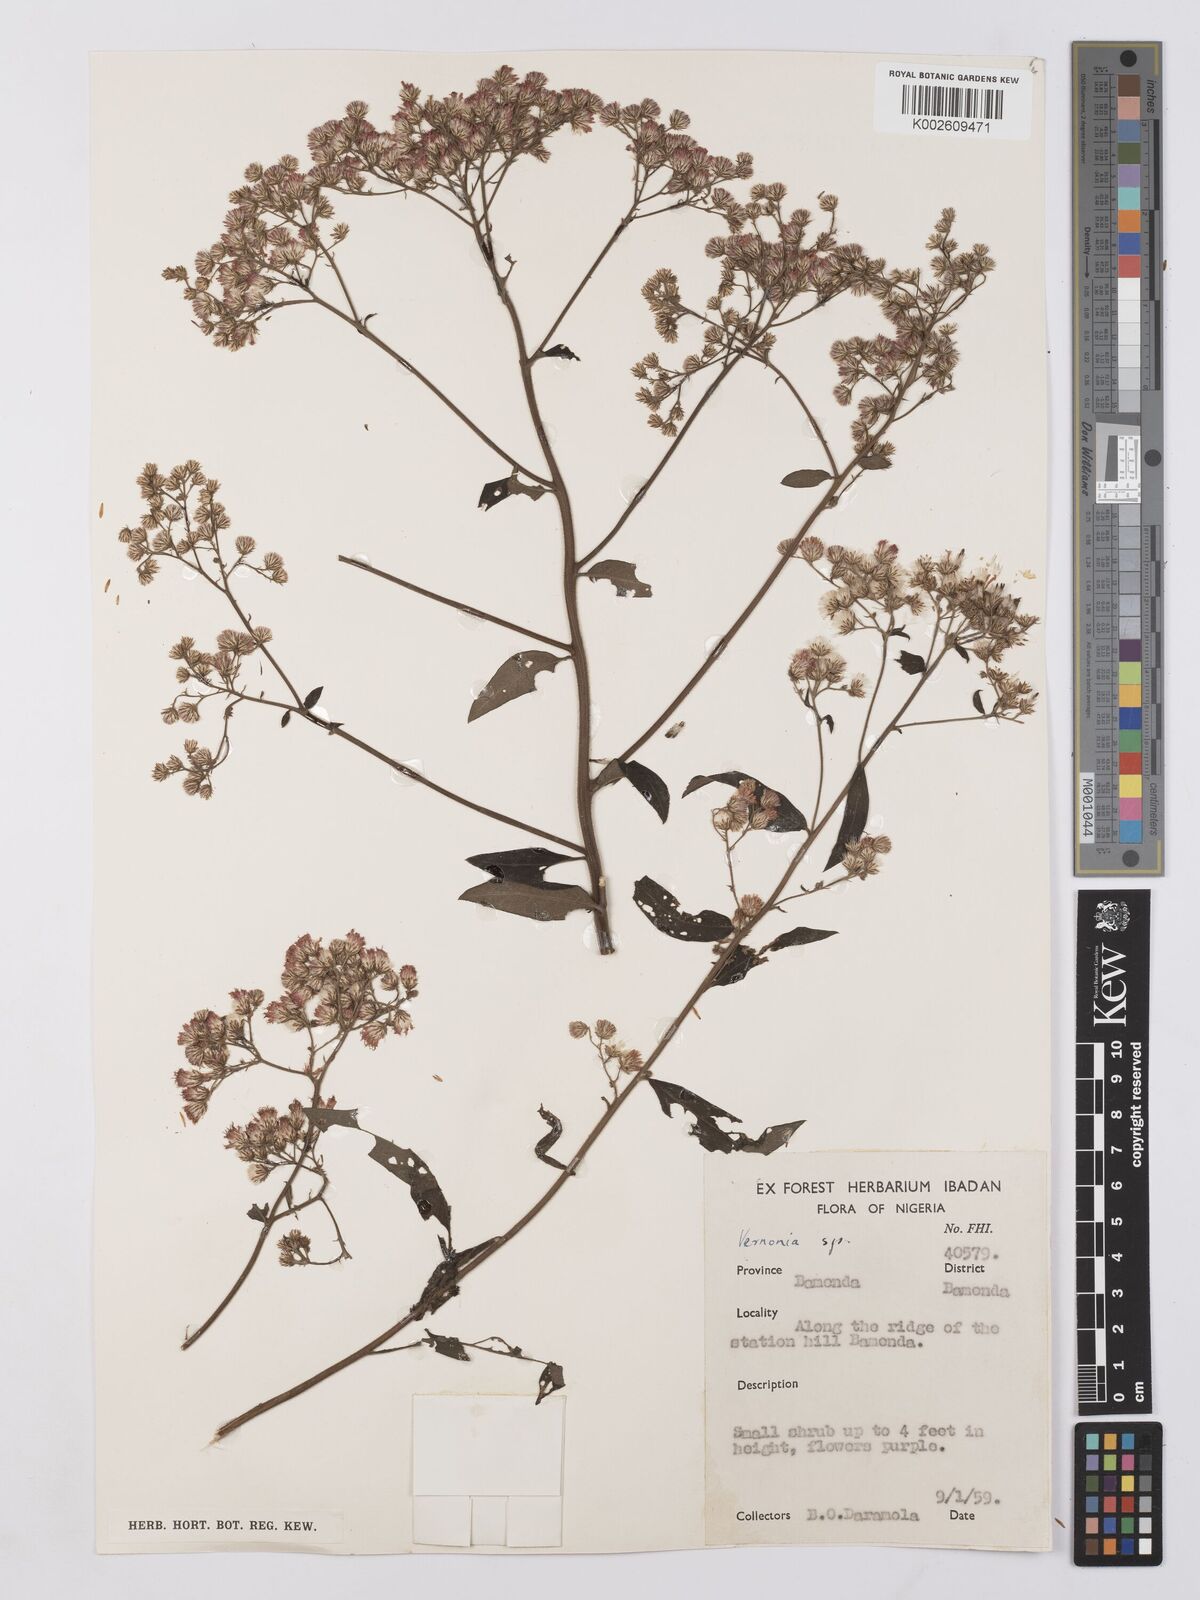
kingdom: Plantae
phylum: Tracheophyta
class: Magnoliopsida
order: Asterales
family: Asteraceae
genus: Vernonia
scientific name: Vernonia
